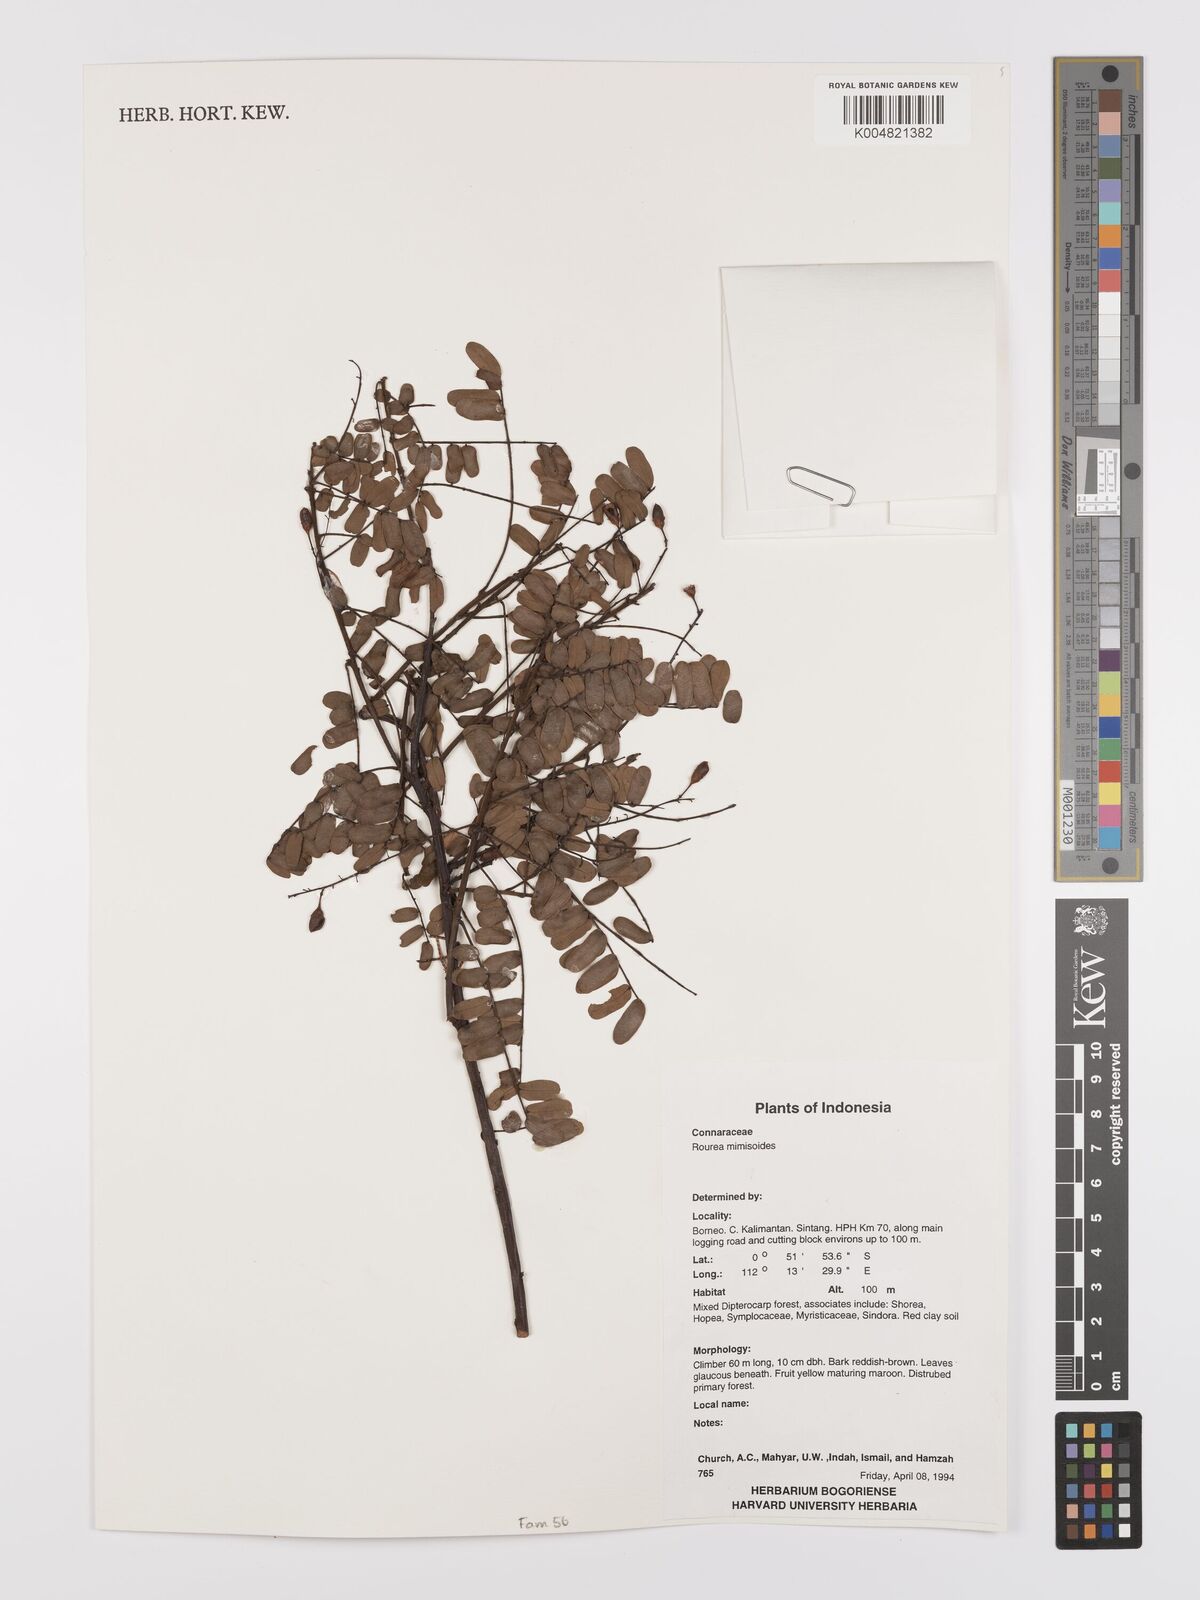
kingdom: Plantae
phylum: Tracheophyta
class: Magnoliopsida
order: Oxalidales
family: Connaraceae
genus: Rourea
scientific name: Rourea mimosoides
